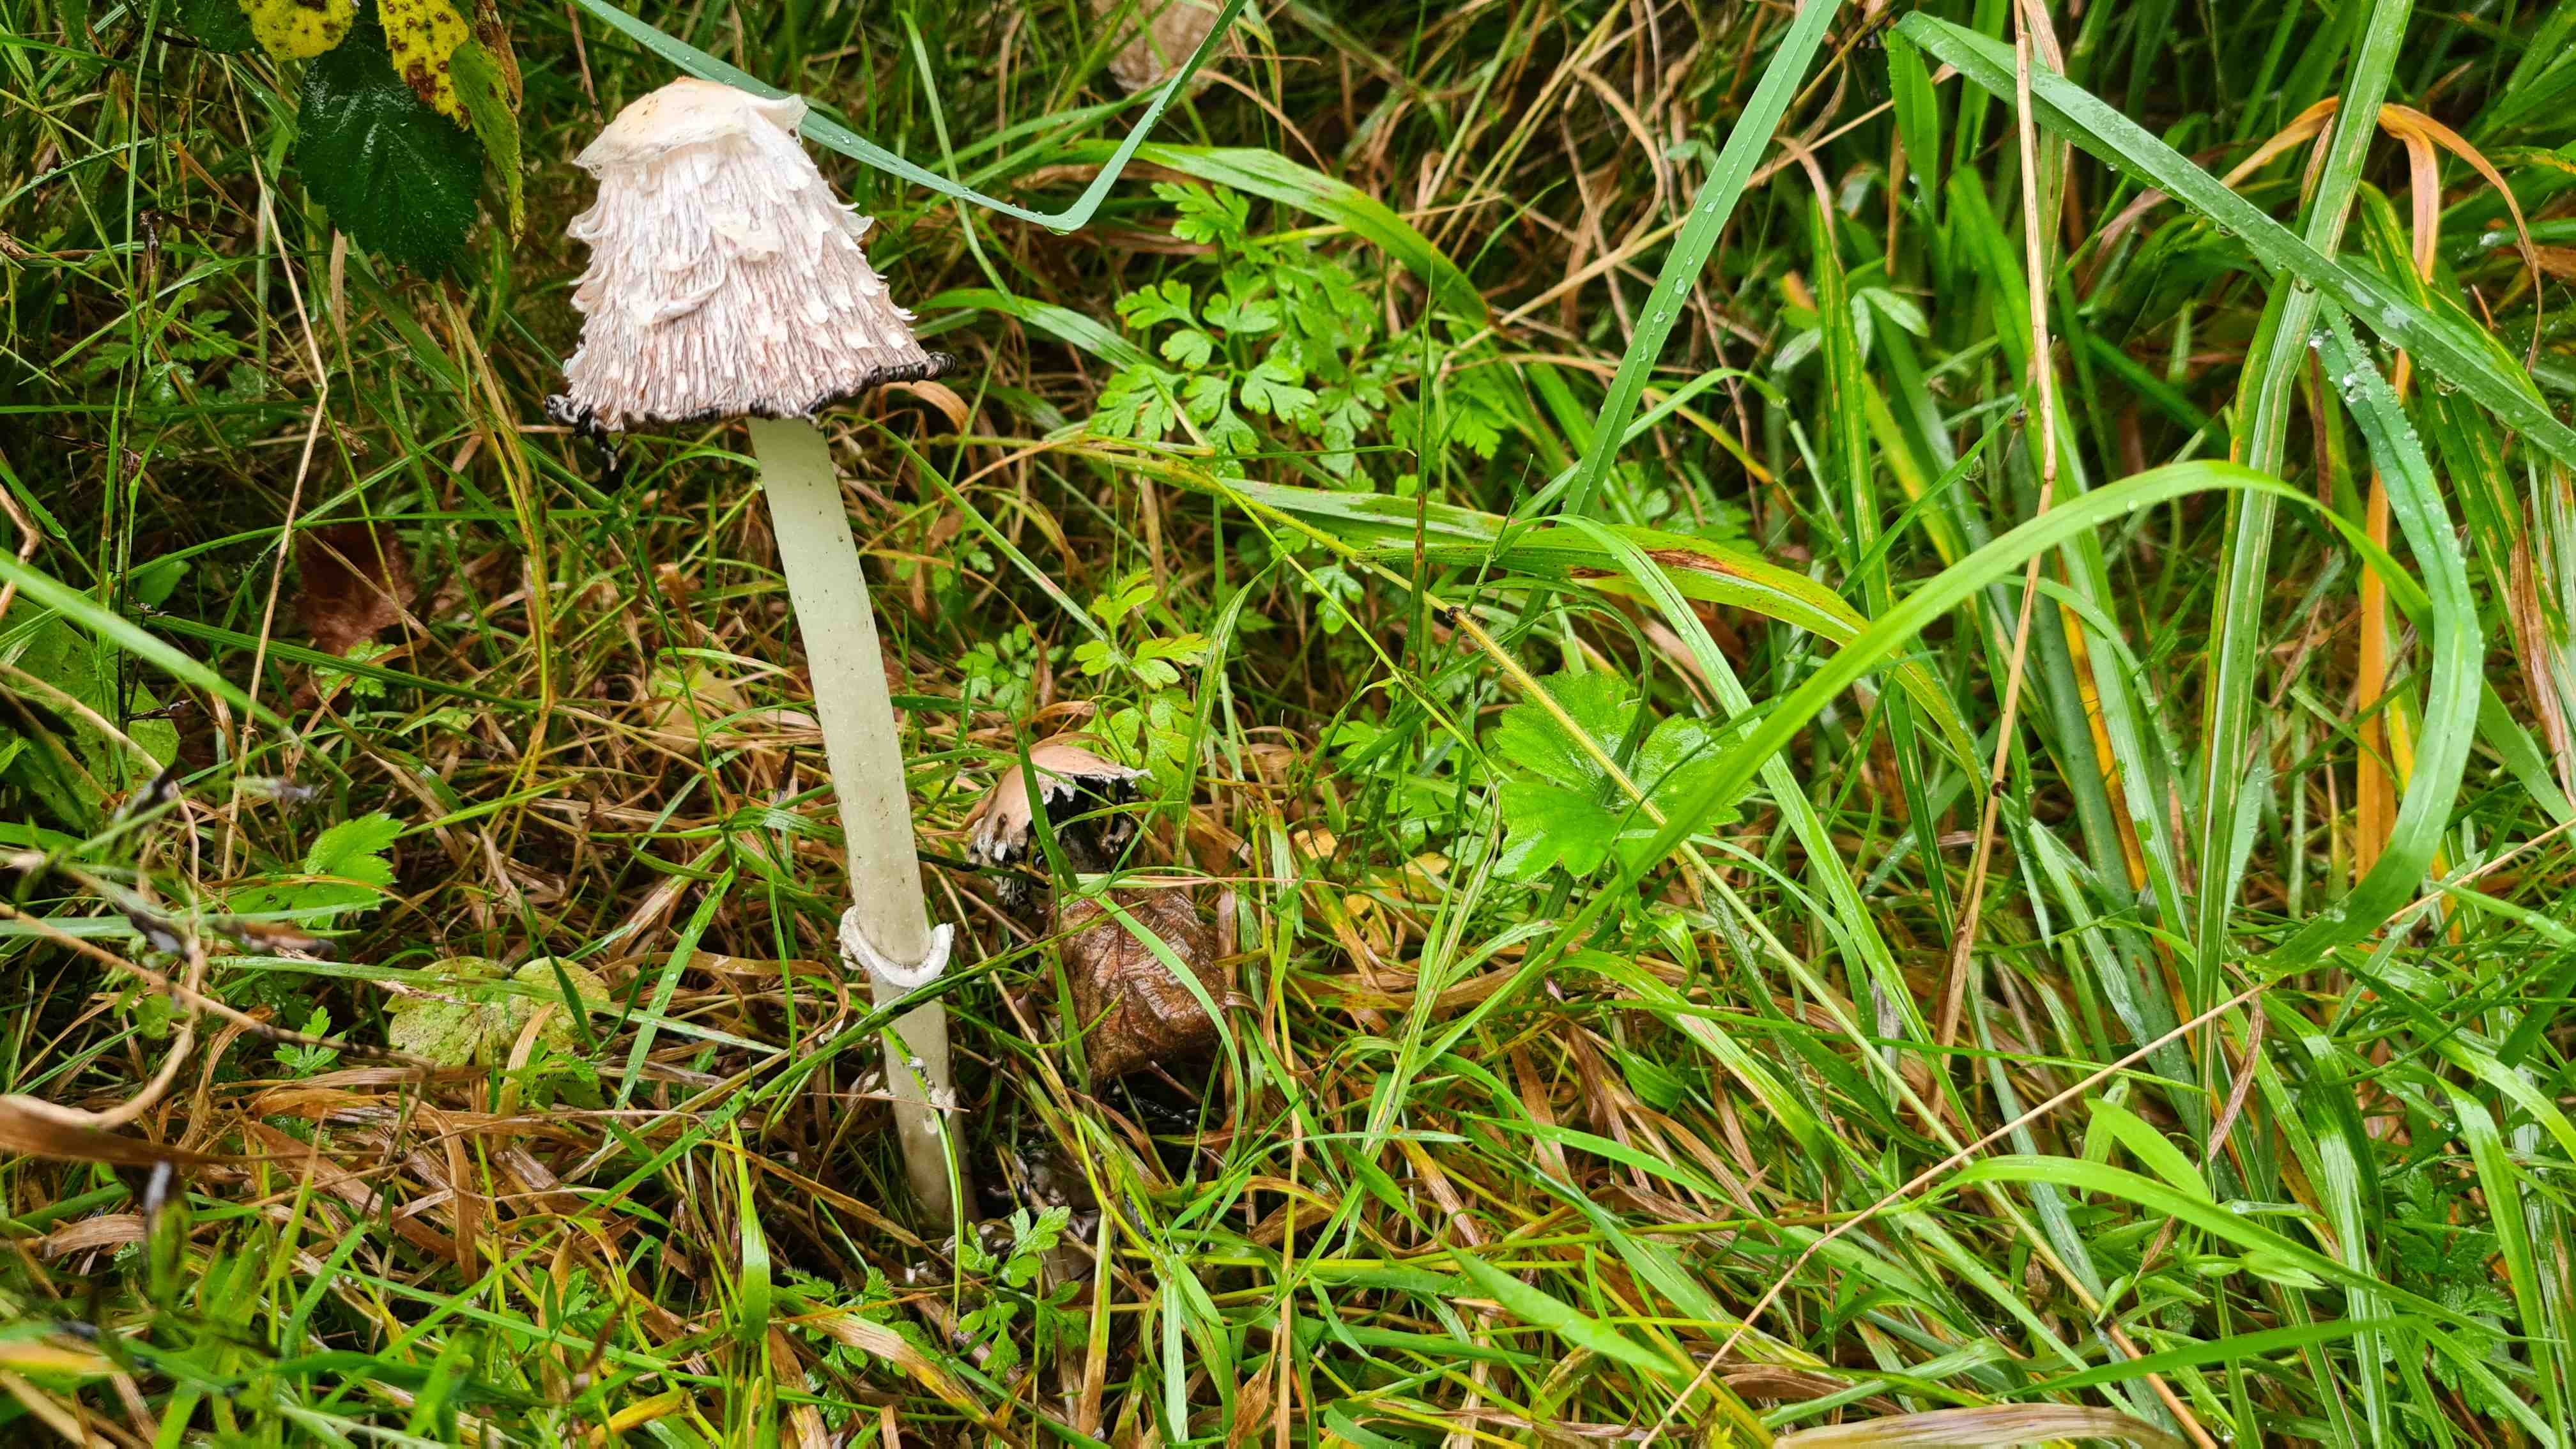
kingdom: Fungi
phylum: Basidiomycota
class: Agaricomycetes
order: Agaricales
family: Agaricaceae
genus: Coprinus
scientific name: Coprinus comatus
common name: stor parykhat
